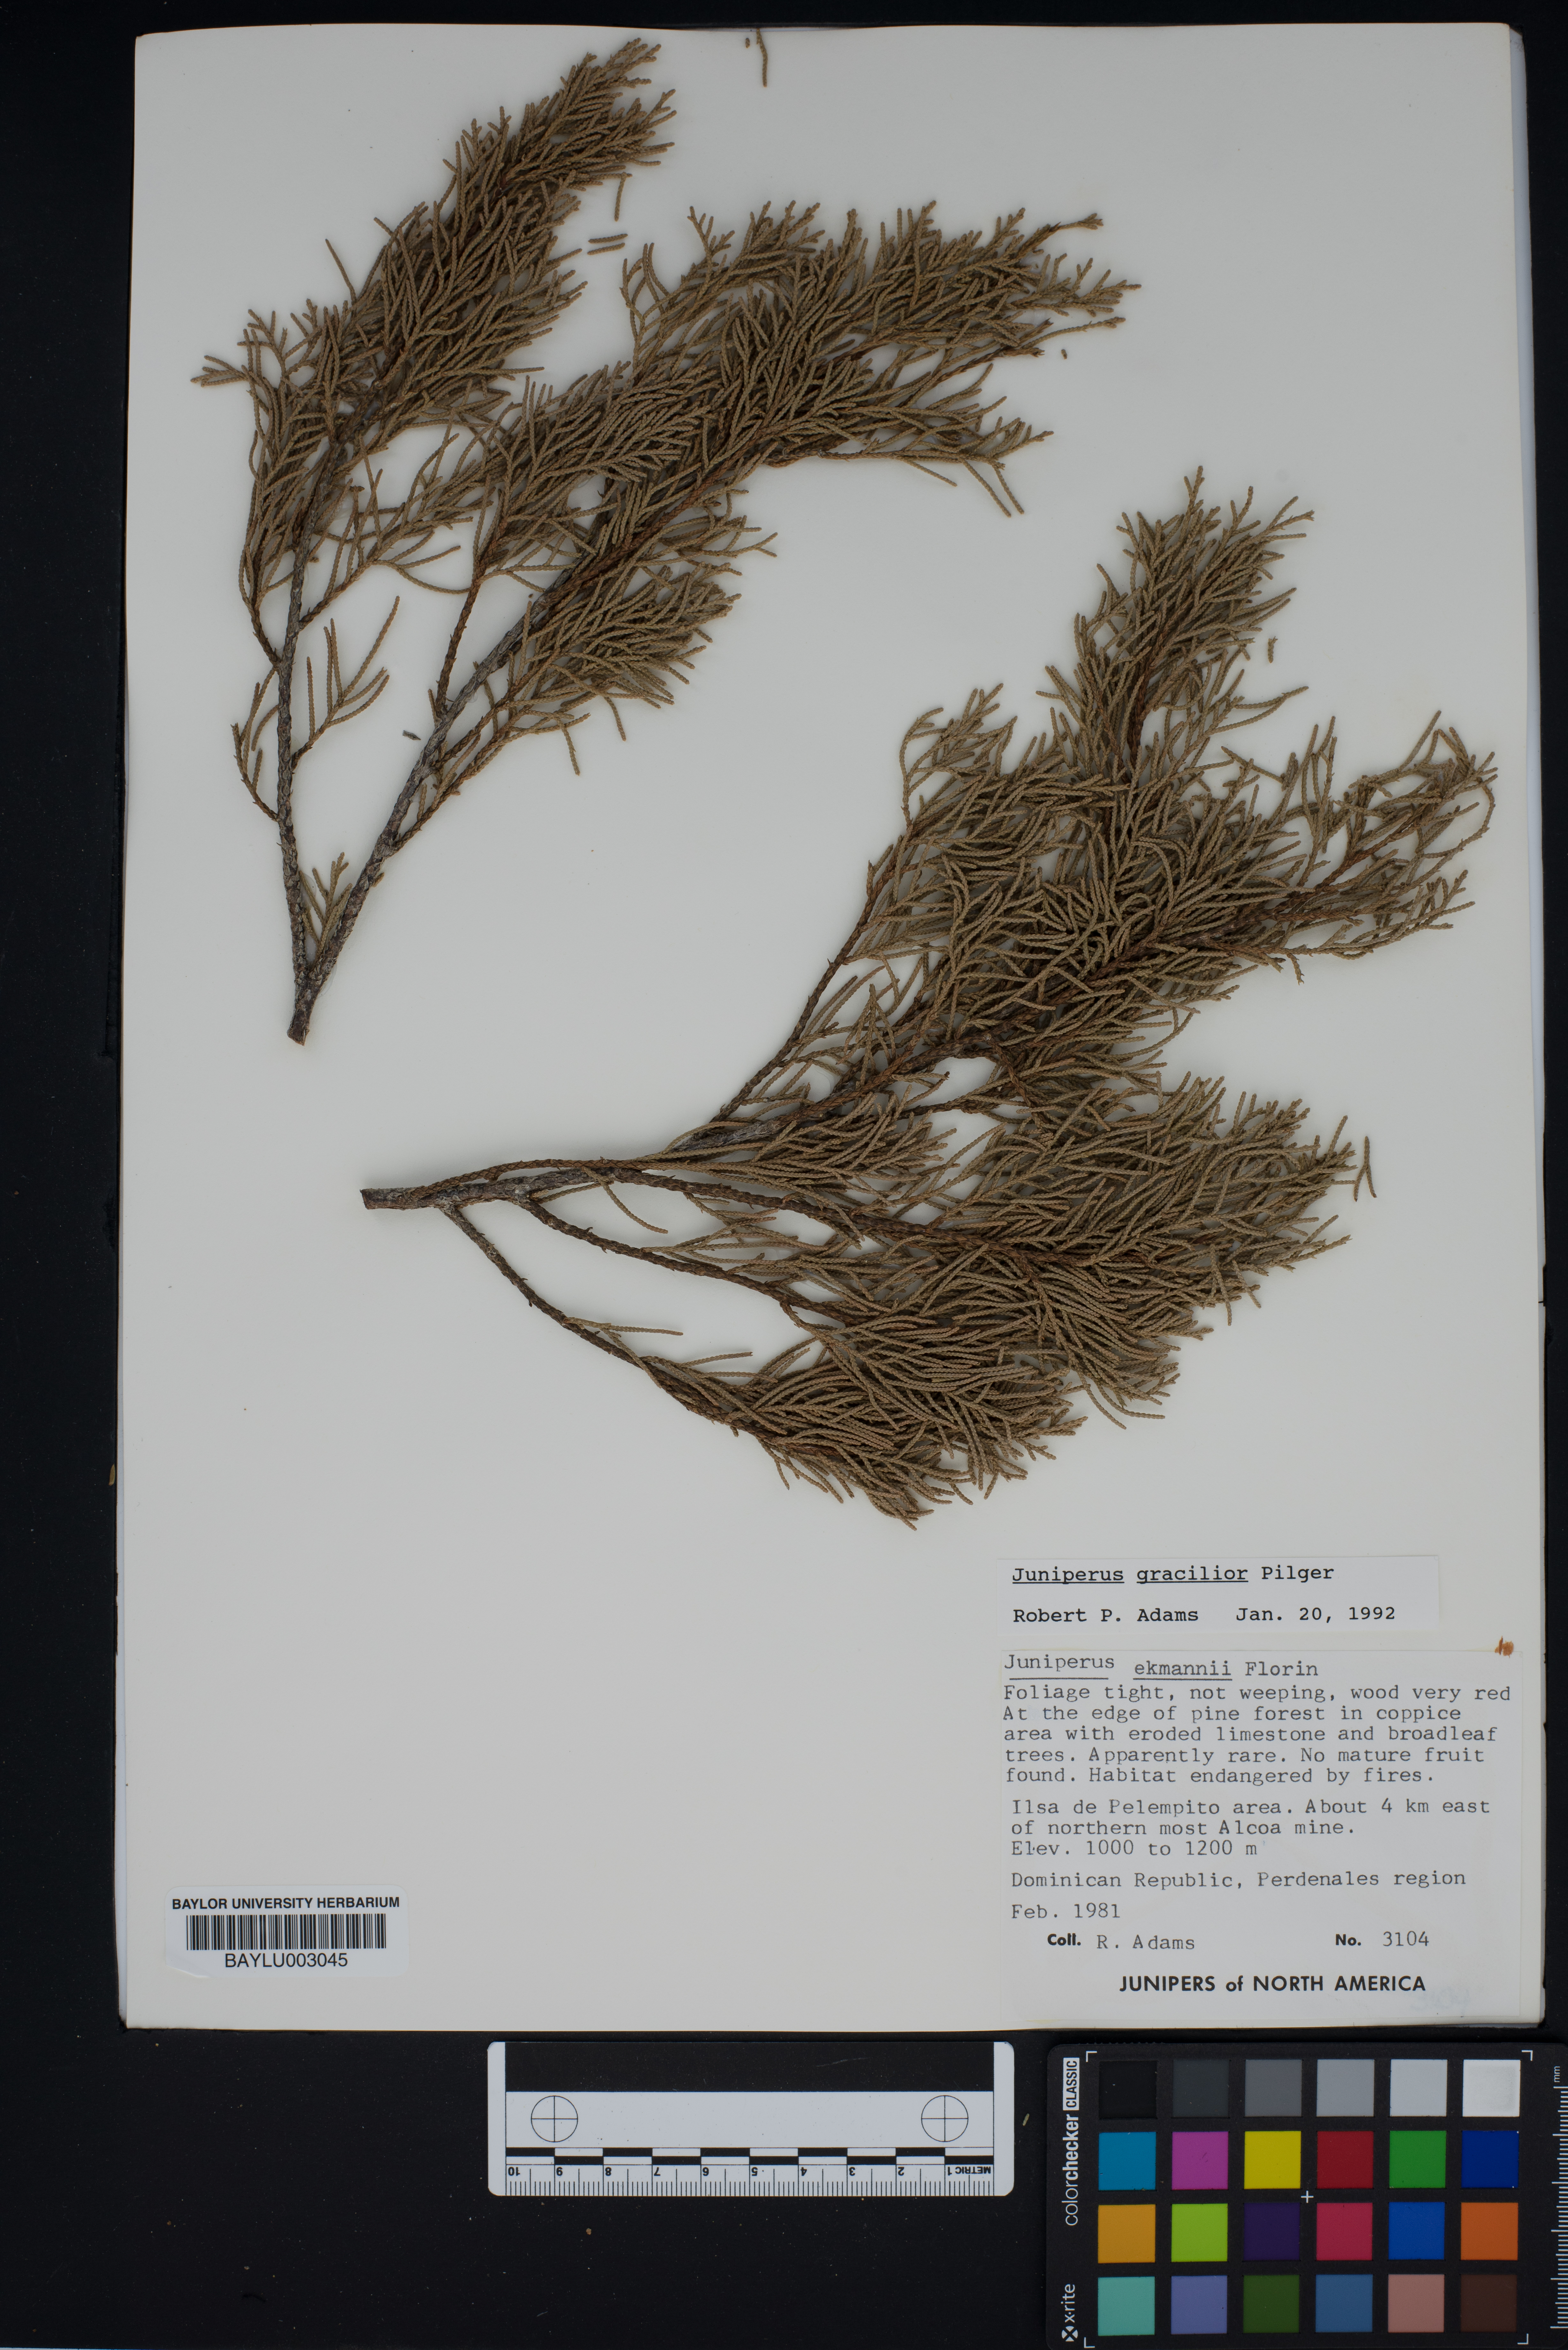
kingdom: Plantae
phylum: Tracheophyta
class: Pinopsida
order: Pinales
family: Cupressaceae
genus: Juniperus
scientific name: Juniperus gracilior
